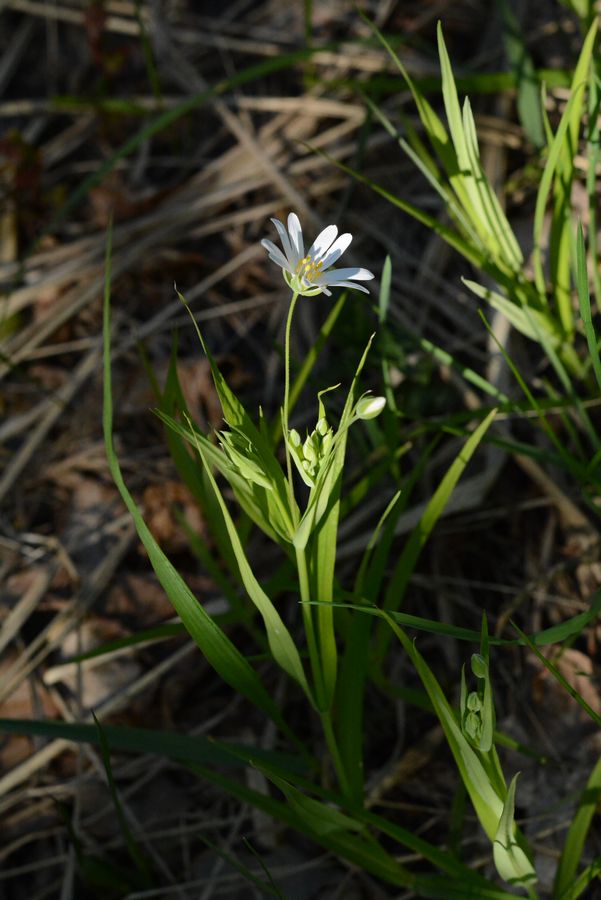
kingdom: Plantae
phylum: Tracheophyta
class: Magnoliopsida
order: Caryophyllales
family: Caryophyllaceae
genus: Stellaria
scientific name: Stellaria
